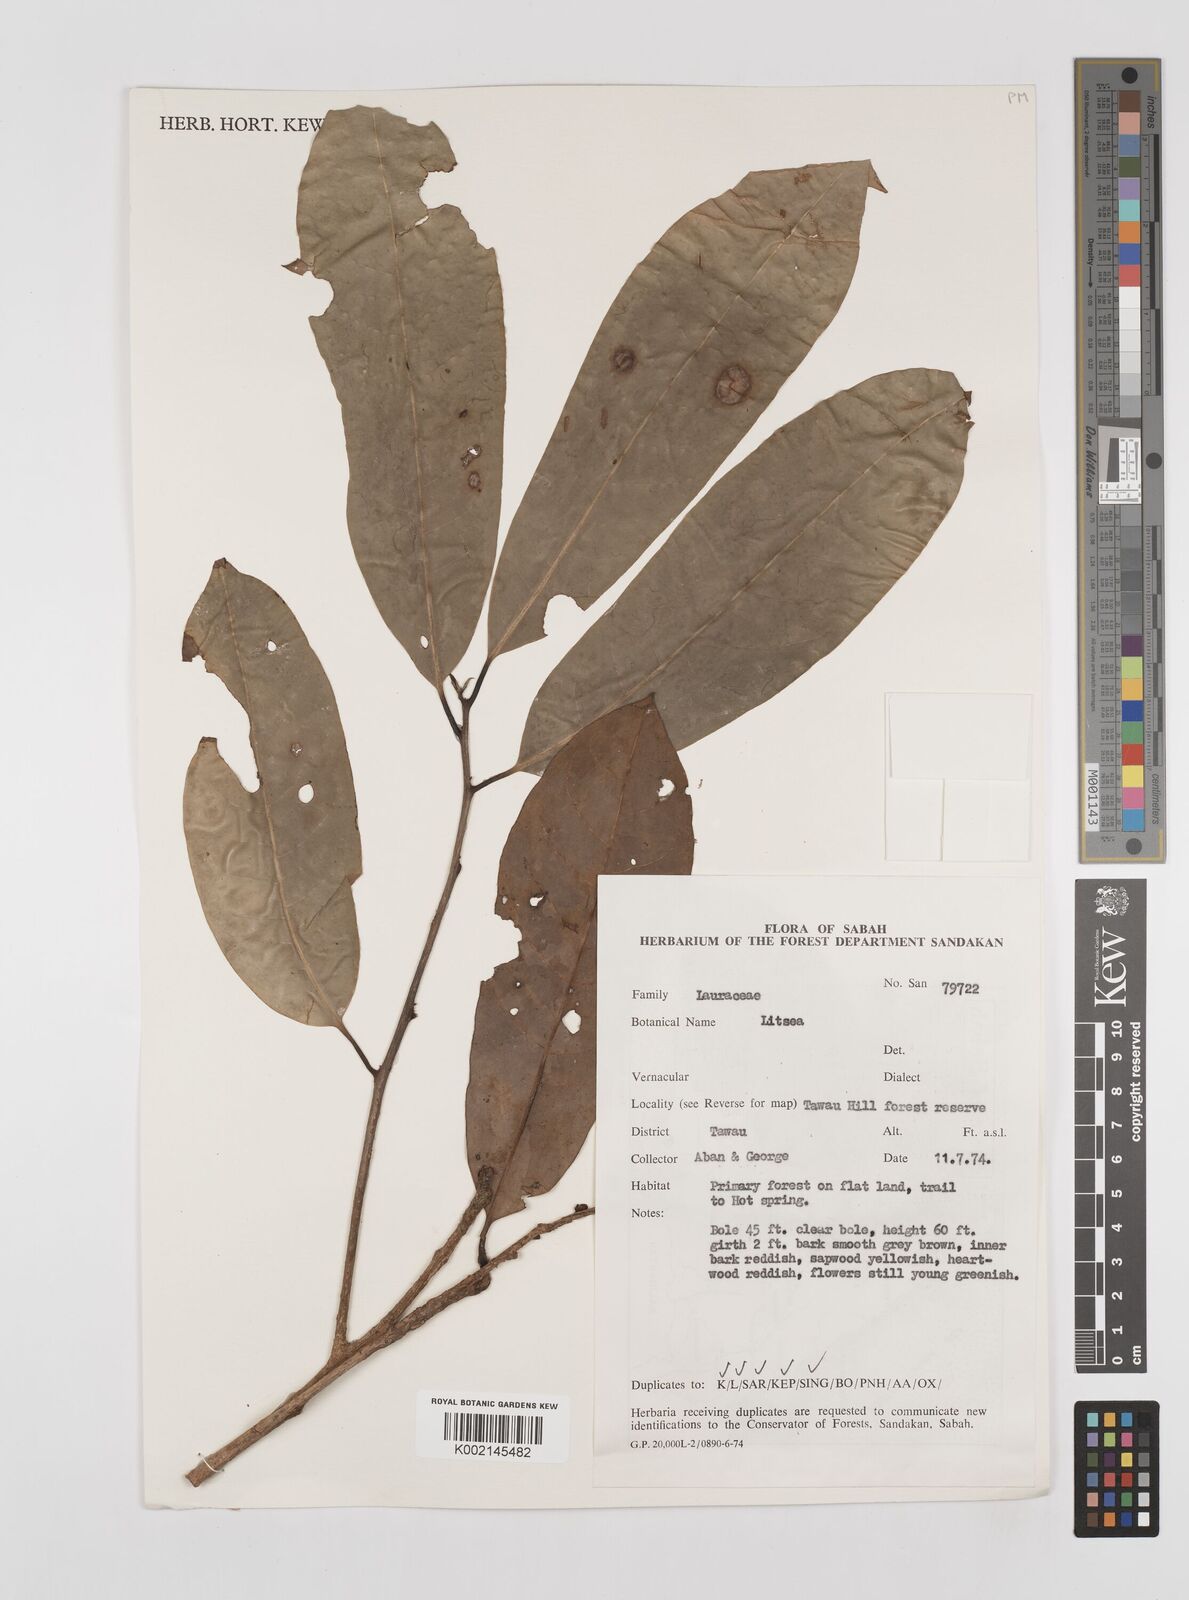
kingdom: Plantae
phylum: Tracheophyta
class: Magnoliopsida
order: Laurales
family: Lauraceae
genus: Litsea
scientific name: Litsea
